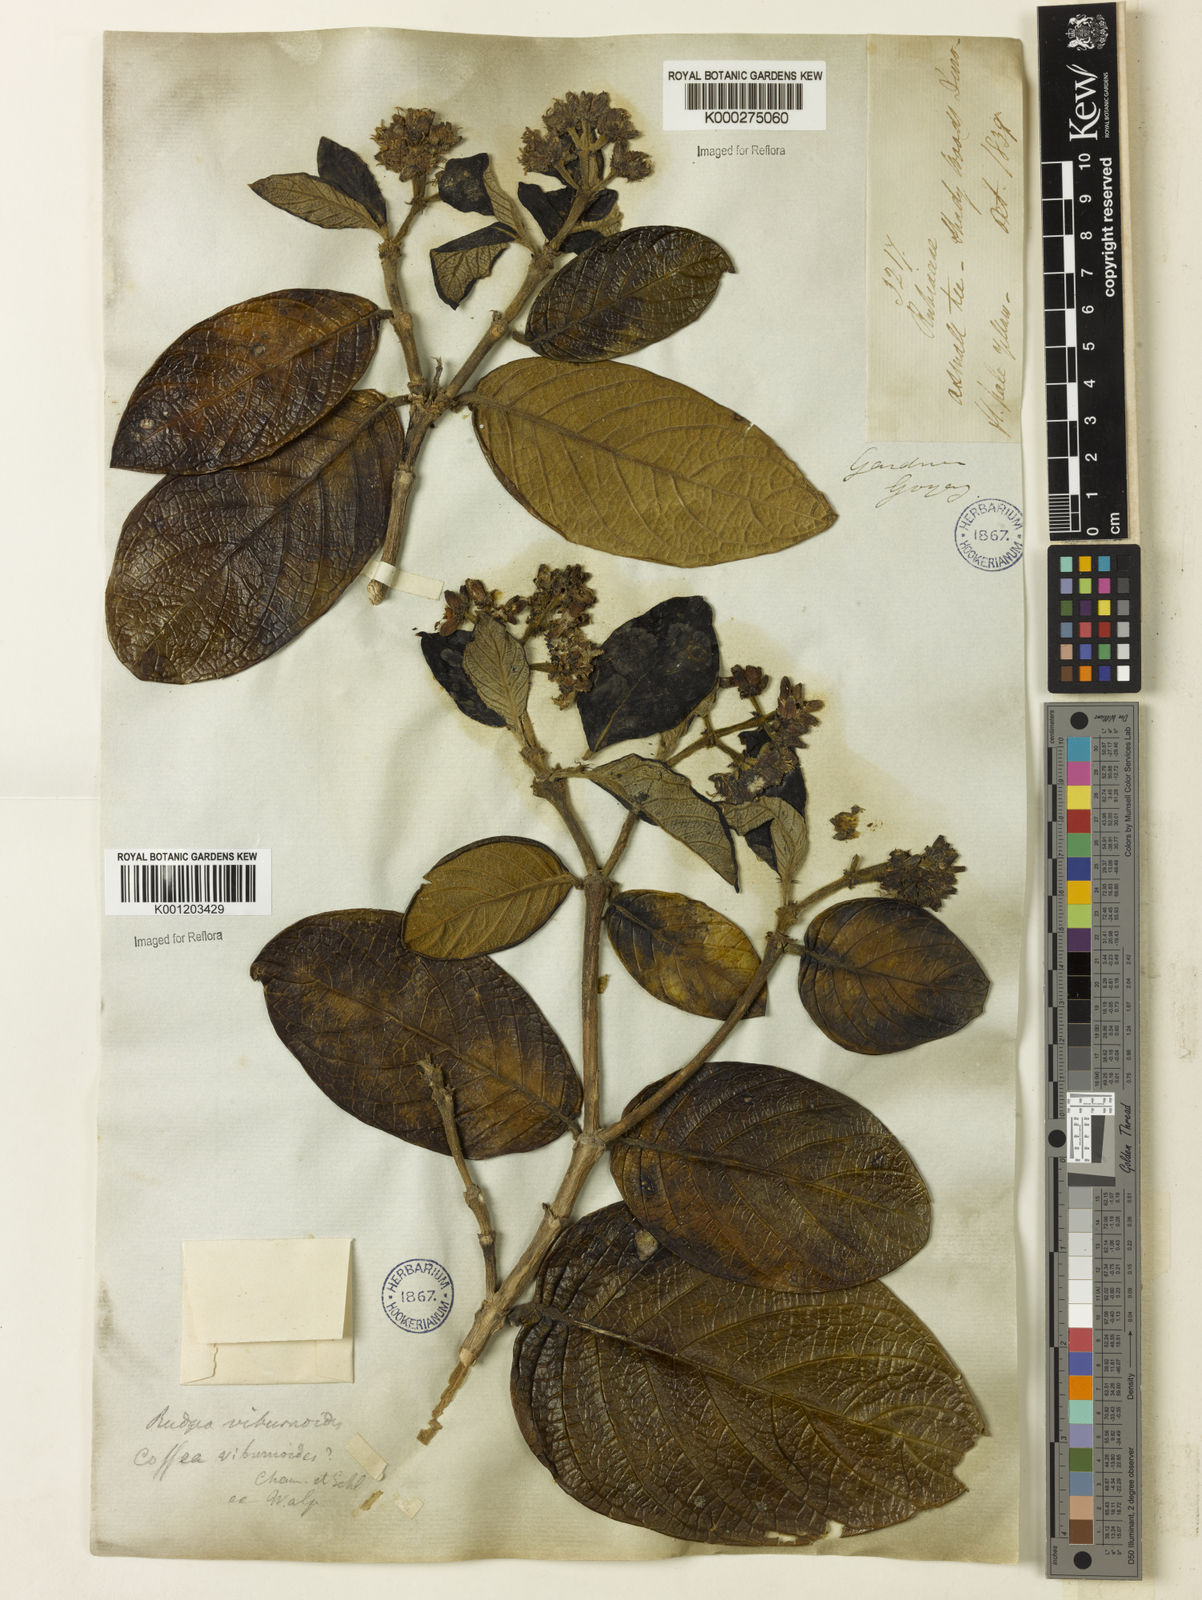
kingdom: Plantae
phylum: Tracheophyta
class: Magnoliopsida
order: Gentianales
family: Rubiaceae
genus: Rudgea
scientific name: Rudgea viburnoides
